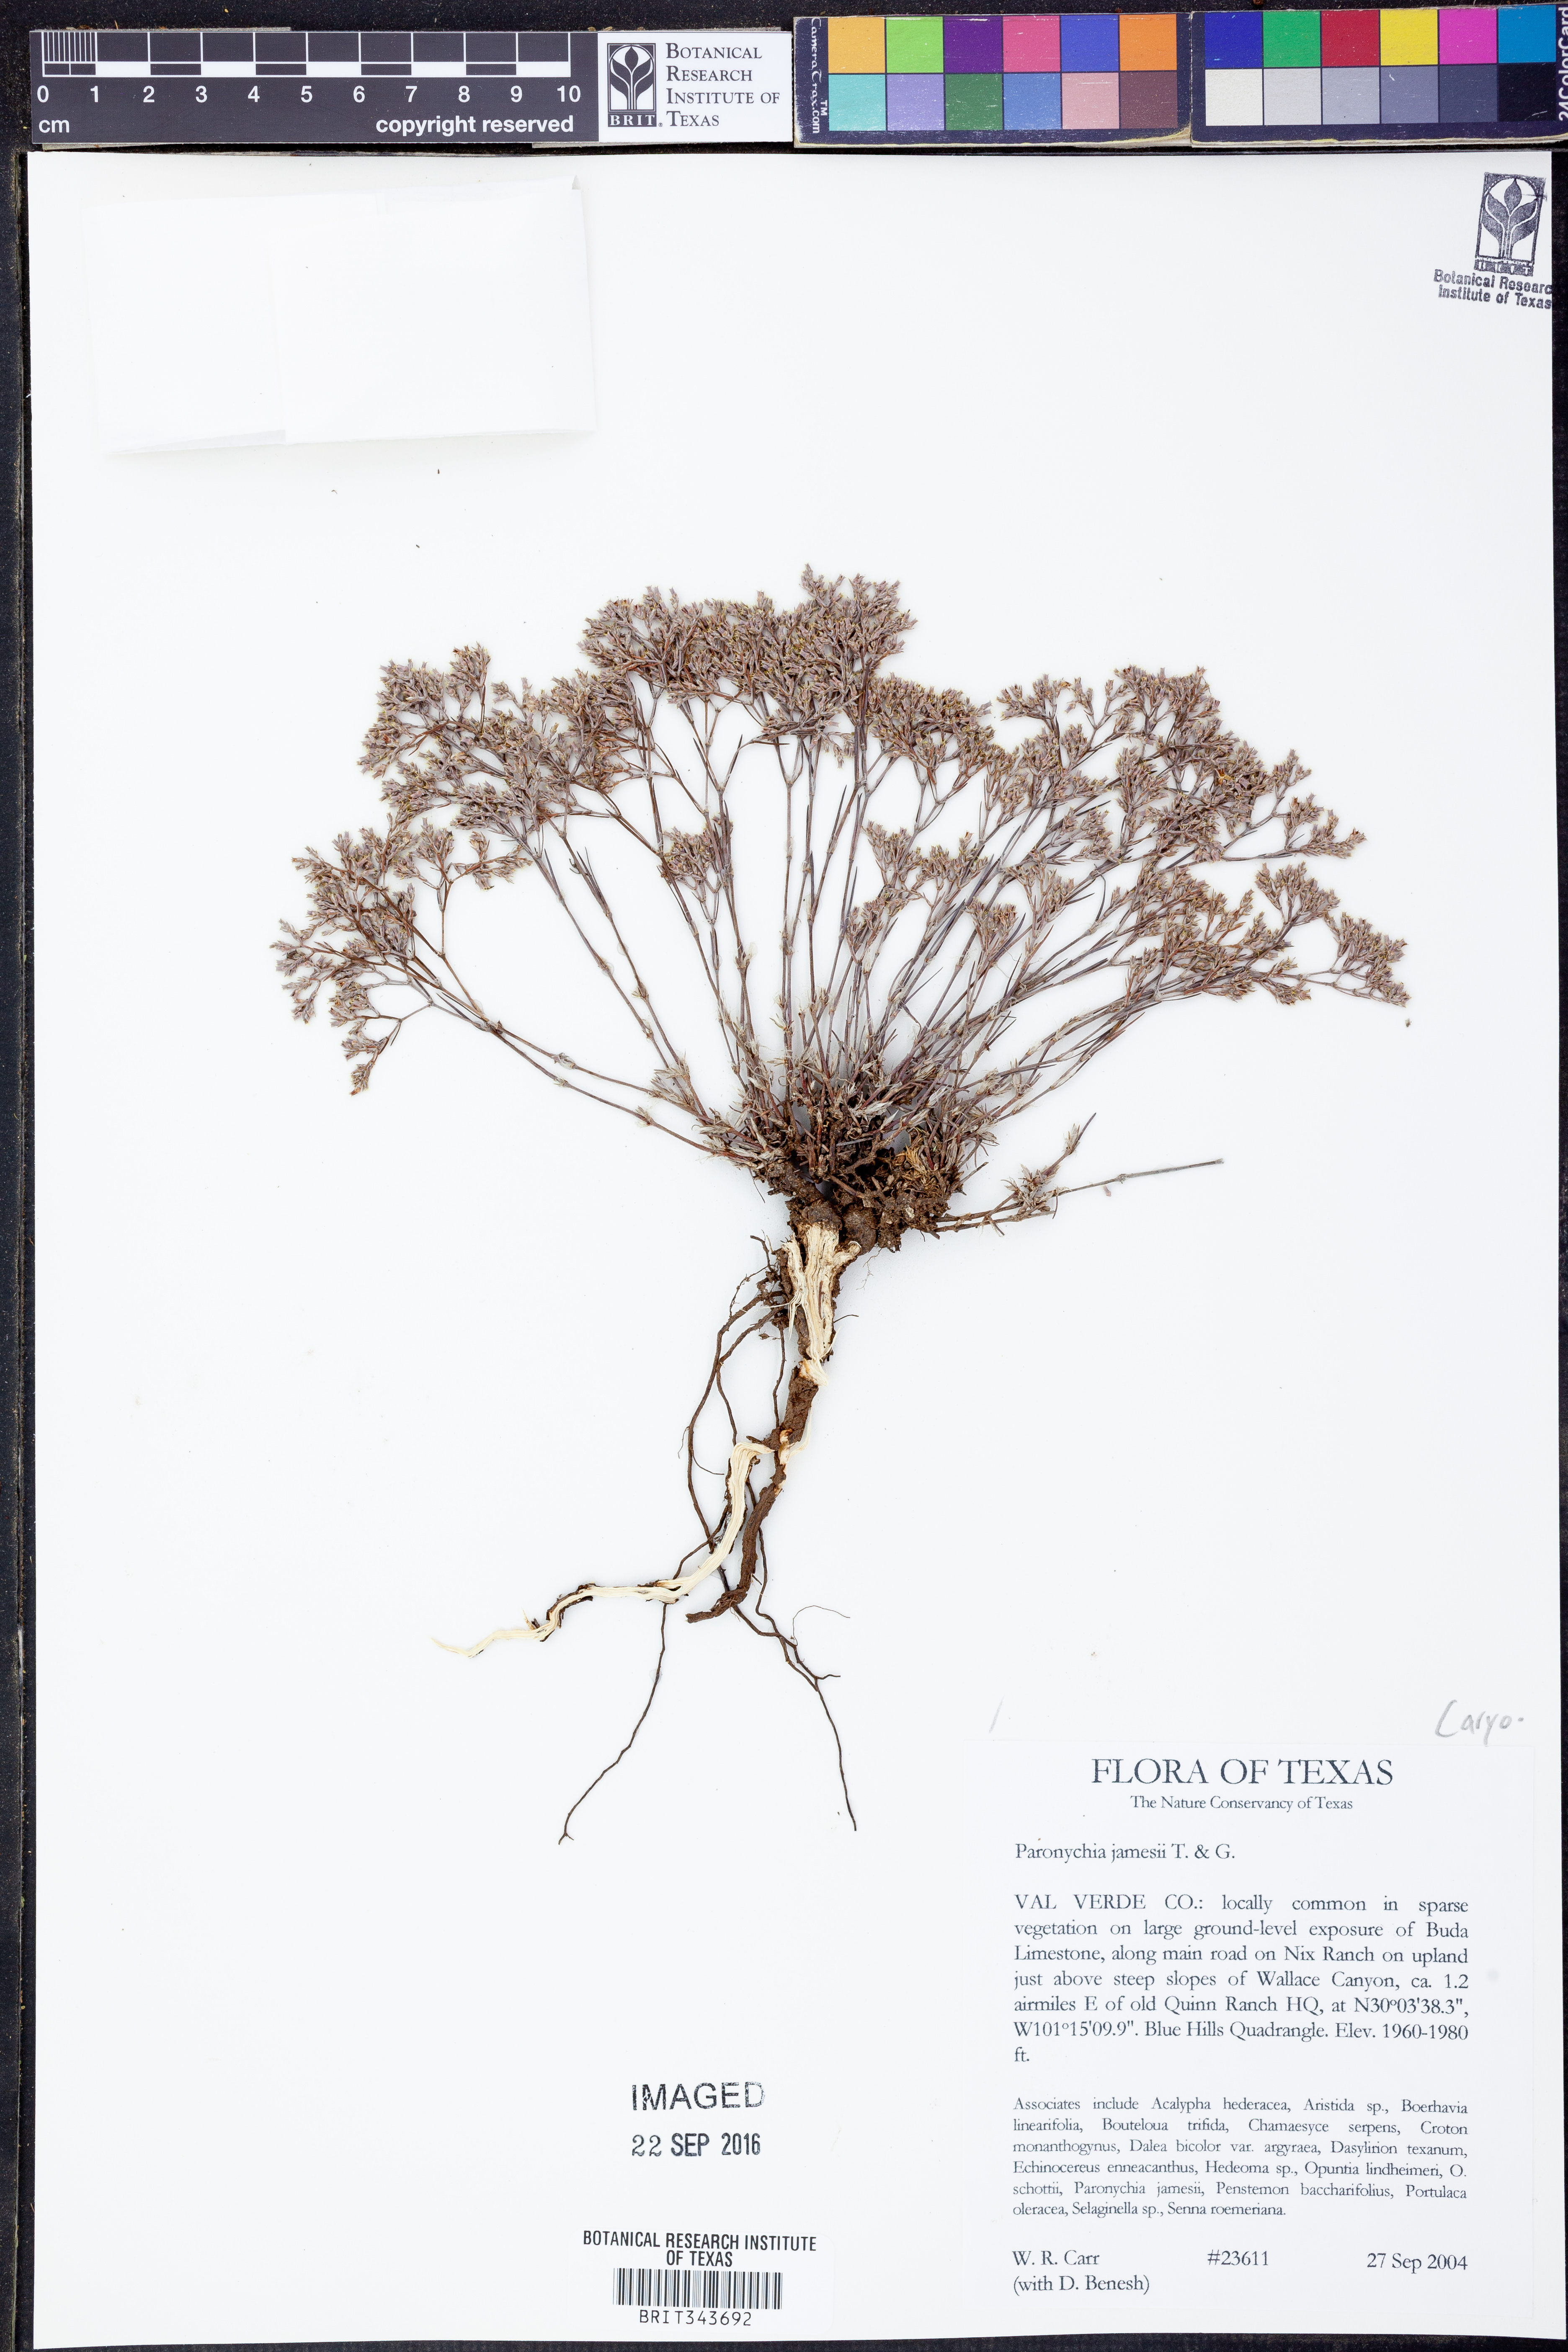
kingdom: Plantae
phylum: Tracheophyta
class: Magnoliopsida
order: Caryophyllales
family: Caryophyllaceae
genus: Paronychia
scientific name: Paronychia jamesii
